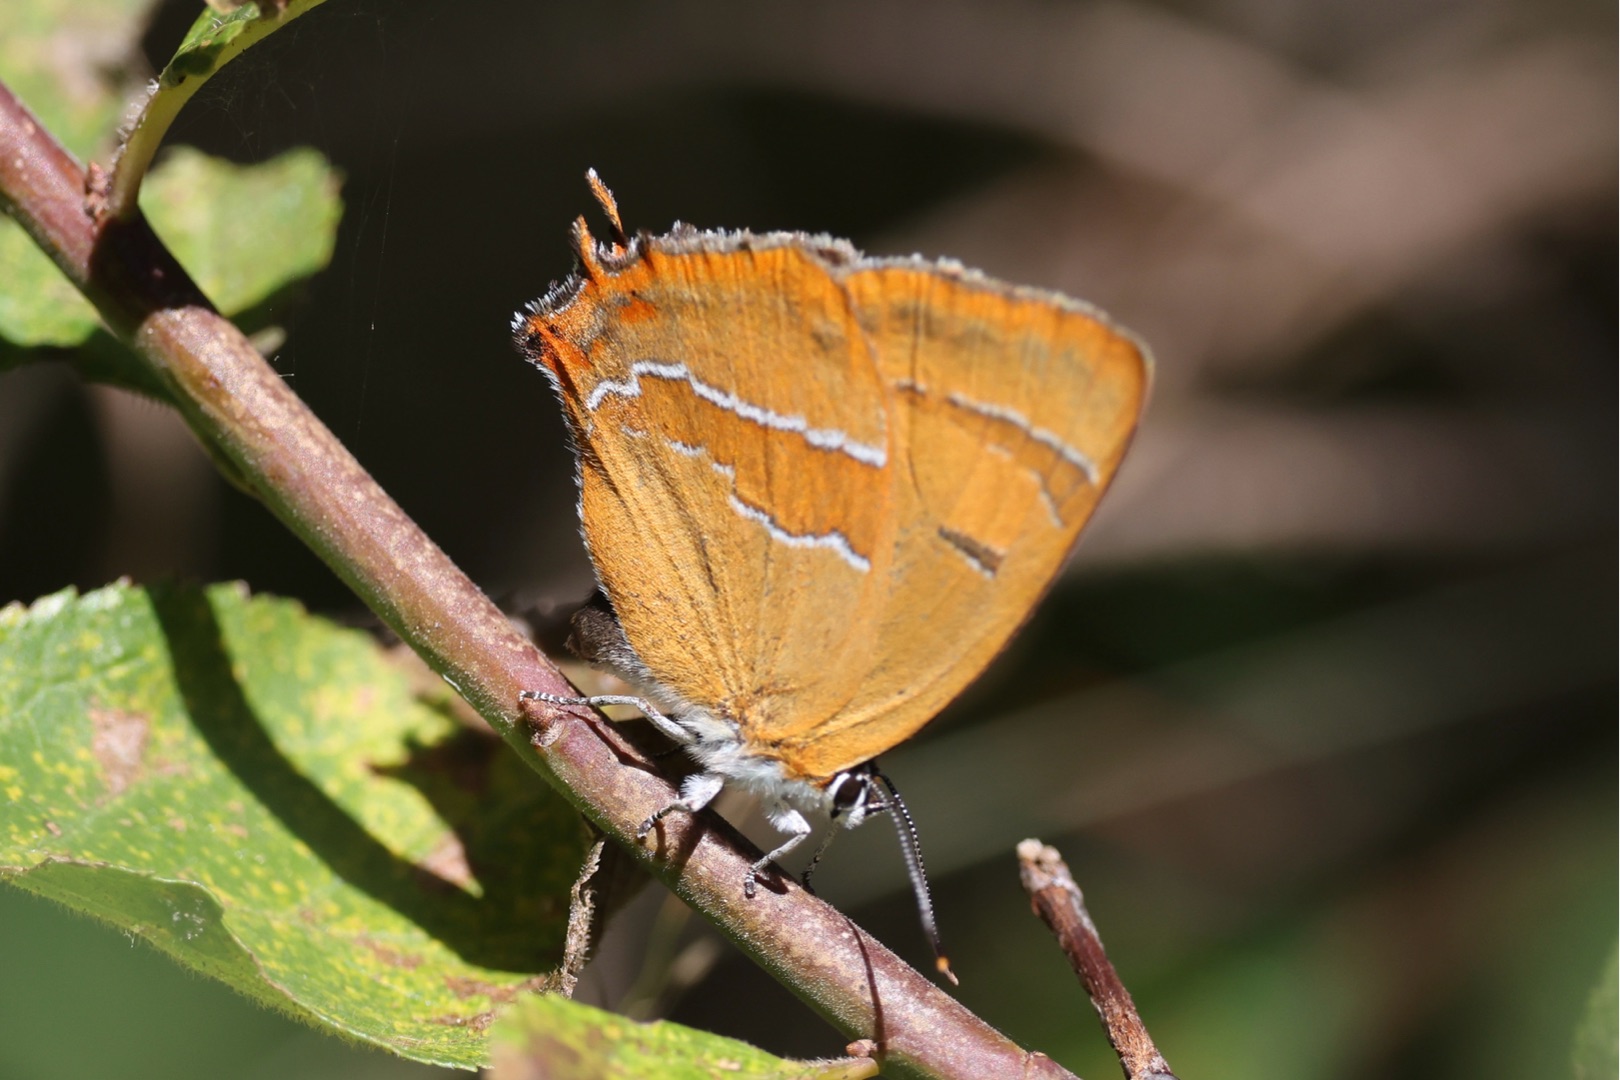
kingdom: Animalia
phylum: Arthropoda
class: Insecta
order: Lepidoptera
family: Lycaenidae
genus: Thecla
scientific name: Thecla betulae
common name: Guldhale
